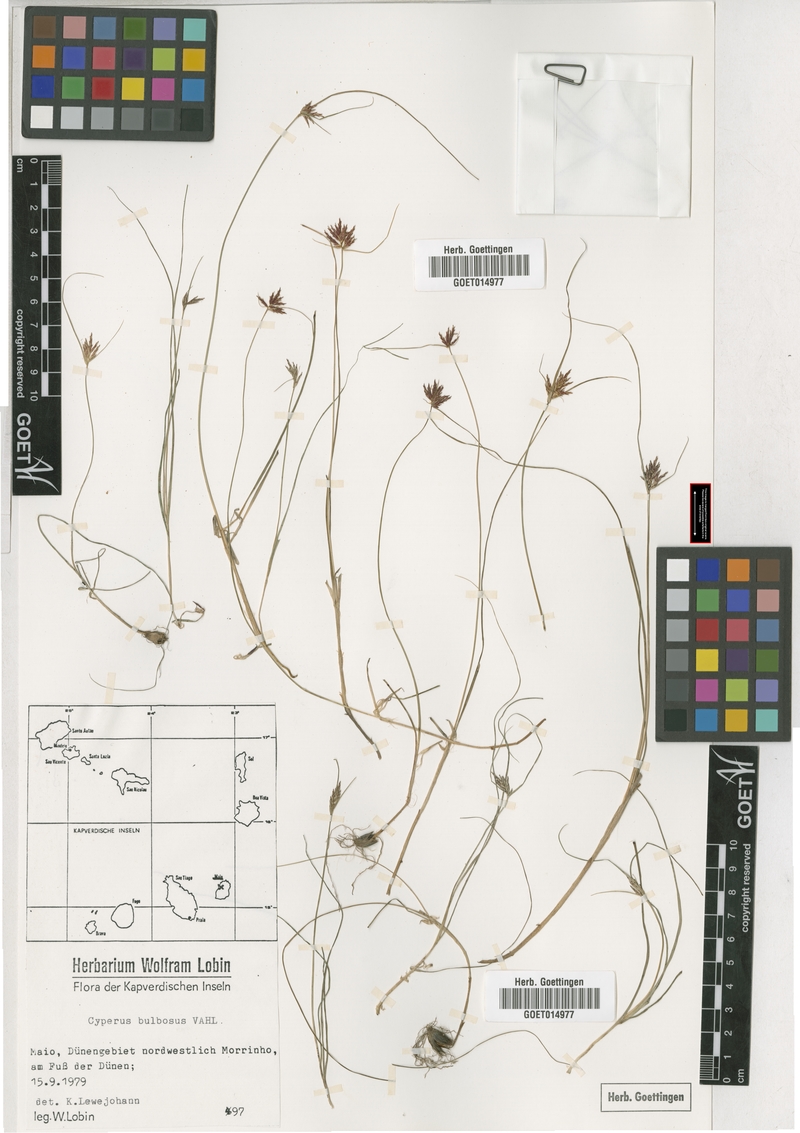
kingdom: Plantae
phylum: Tracheophyta
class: Liliopsida
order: Poales
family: Cyperaceae
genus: Cyperus
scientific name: Cyperus bulbosus
